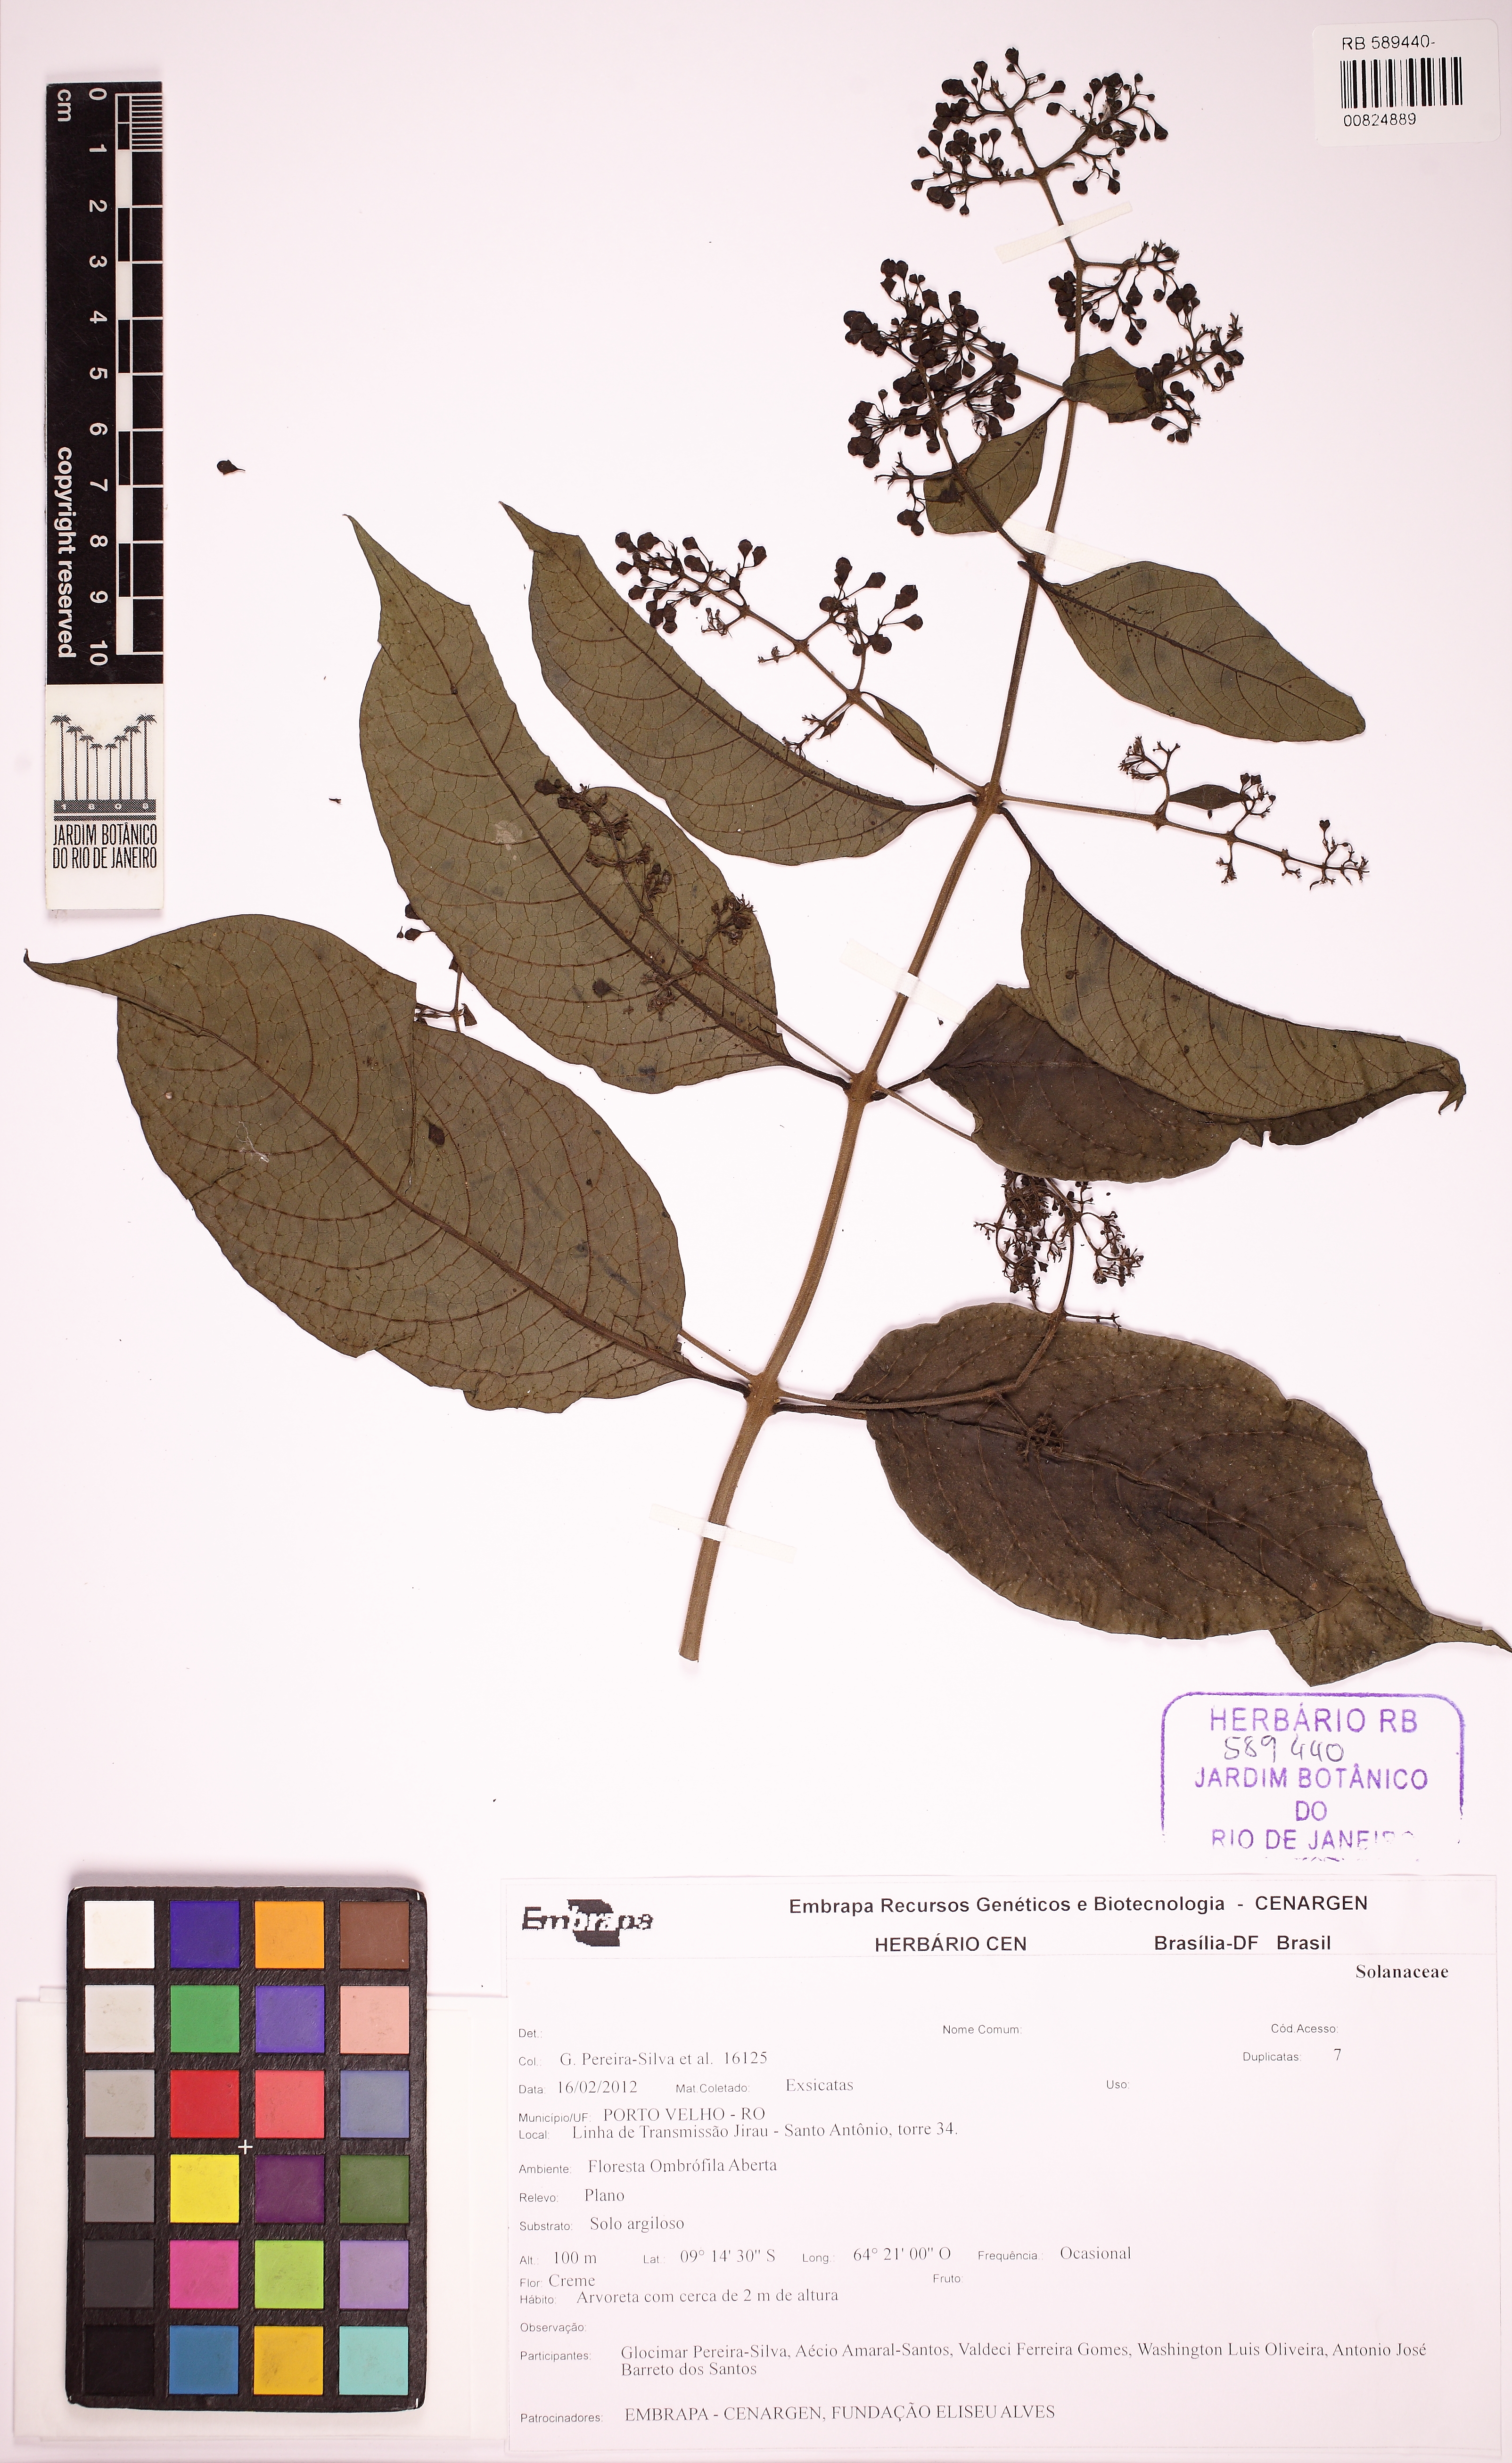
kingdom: Plantae
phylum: Tracheophyta
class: Magnoliopsida
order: Lamiales
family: Lamiaceae
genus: Aegiphila
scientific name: Aegiphila
